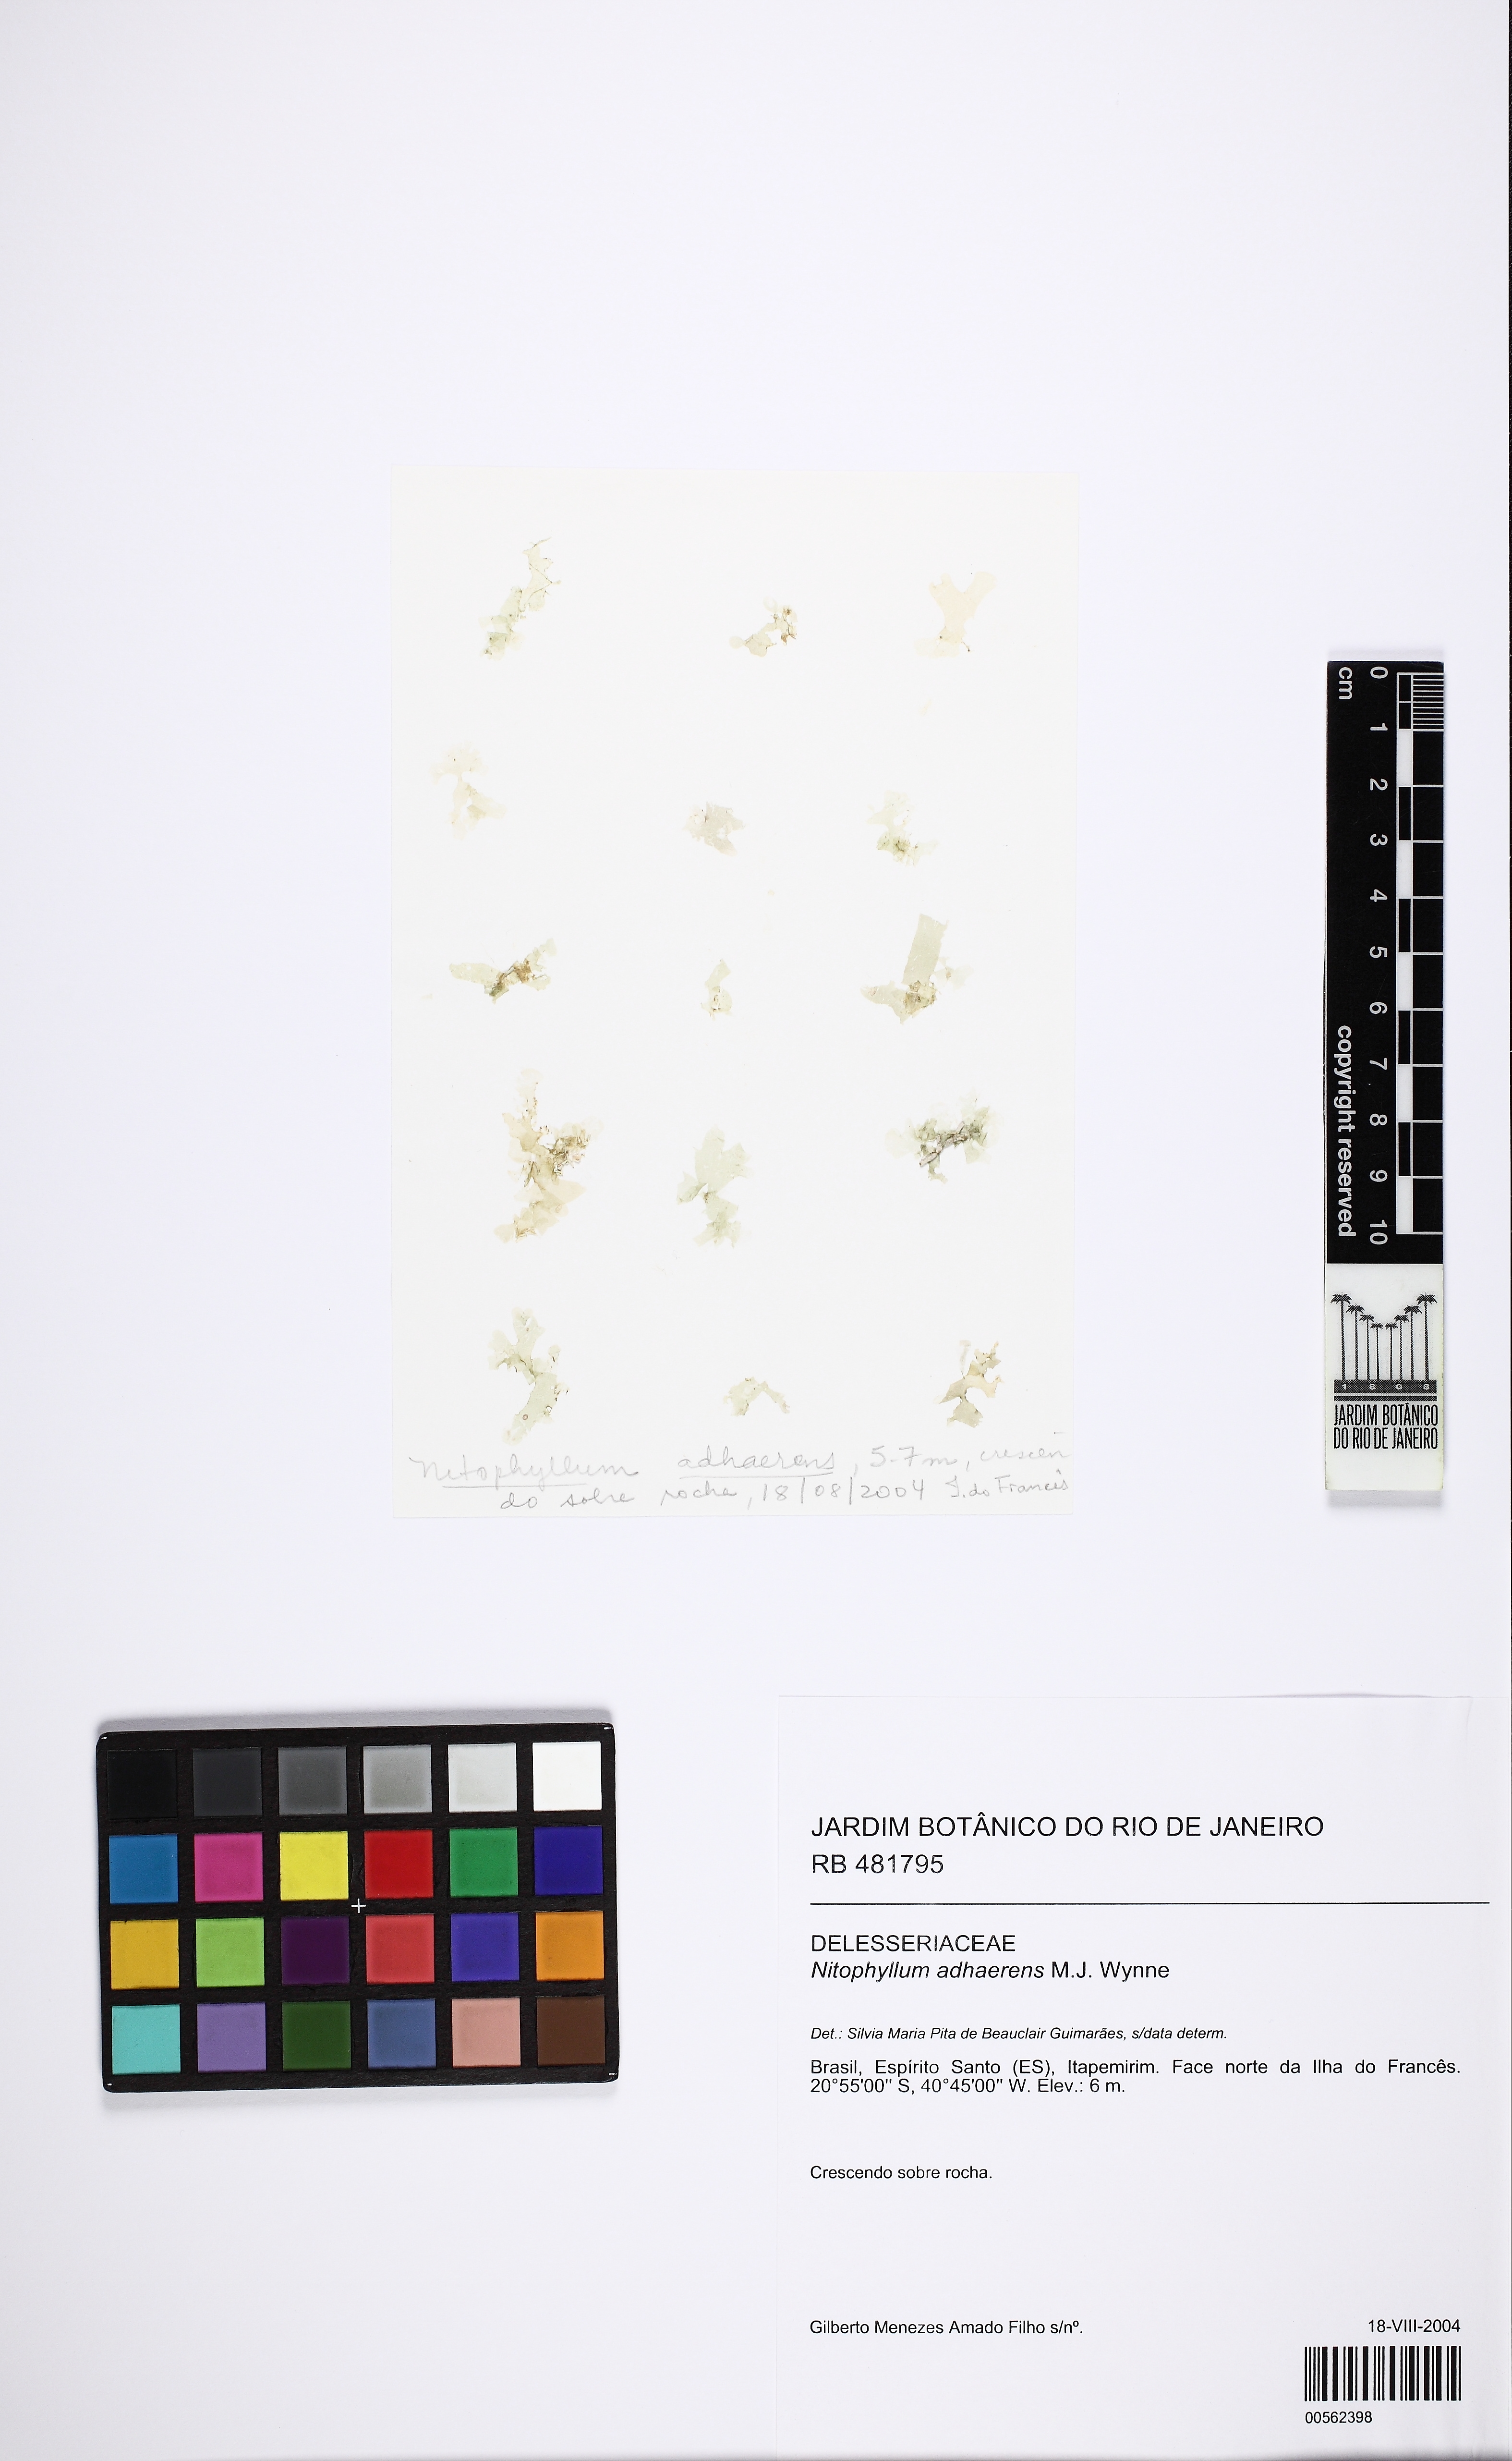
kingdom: Plantae
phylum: Rhodophyta
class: Florideophyceae
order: Ceramiales
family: Delesseriaceae
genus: Nitophyllum
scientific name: Nitophyllum adhaerens
